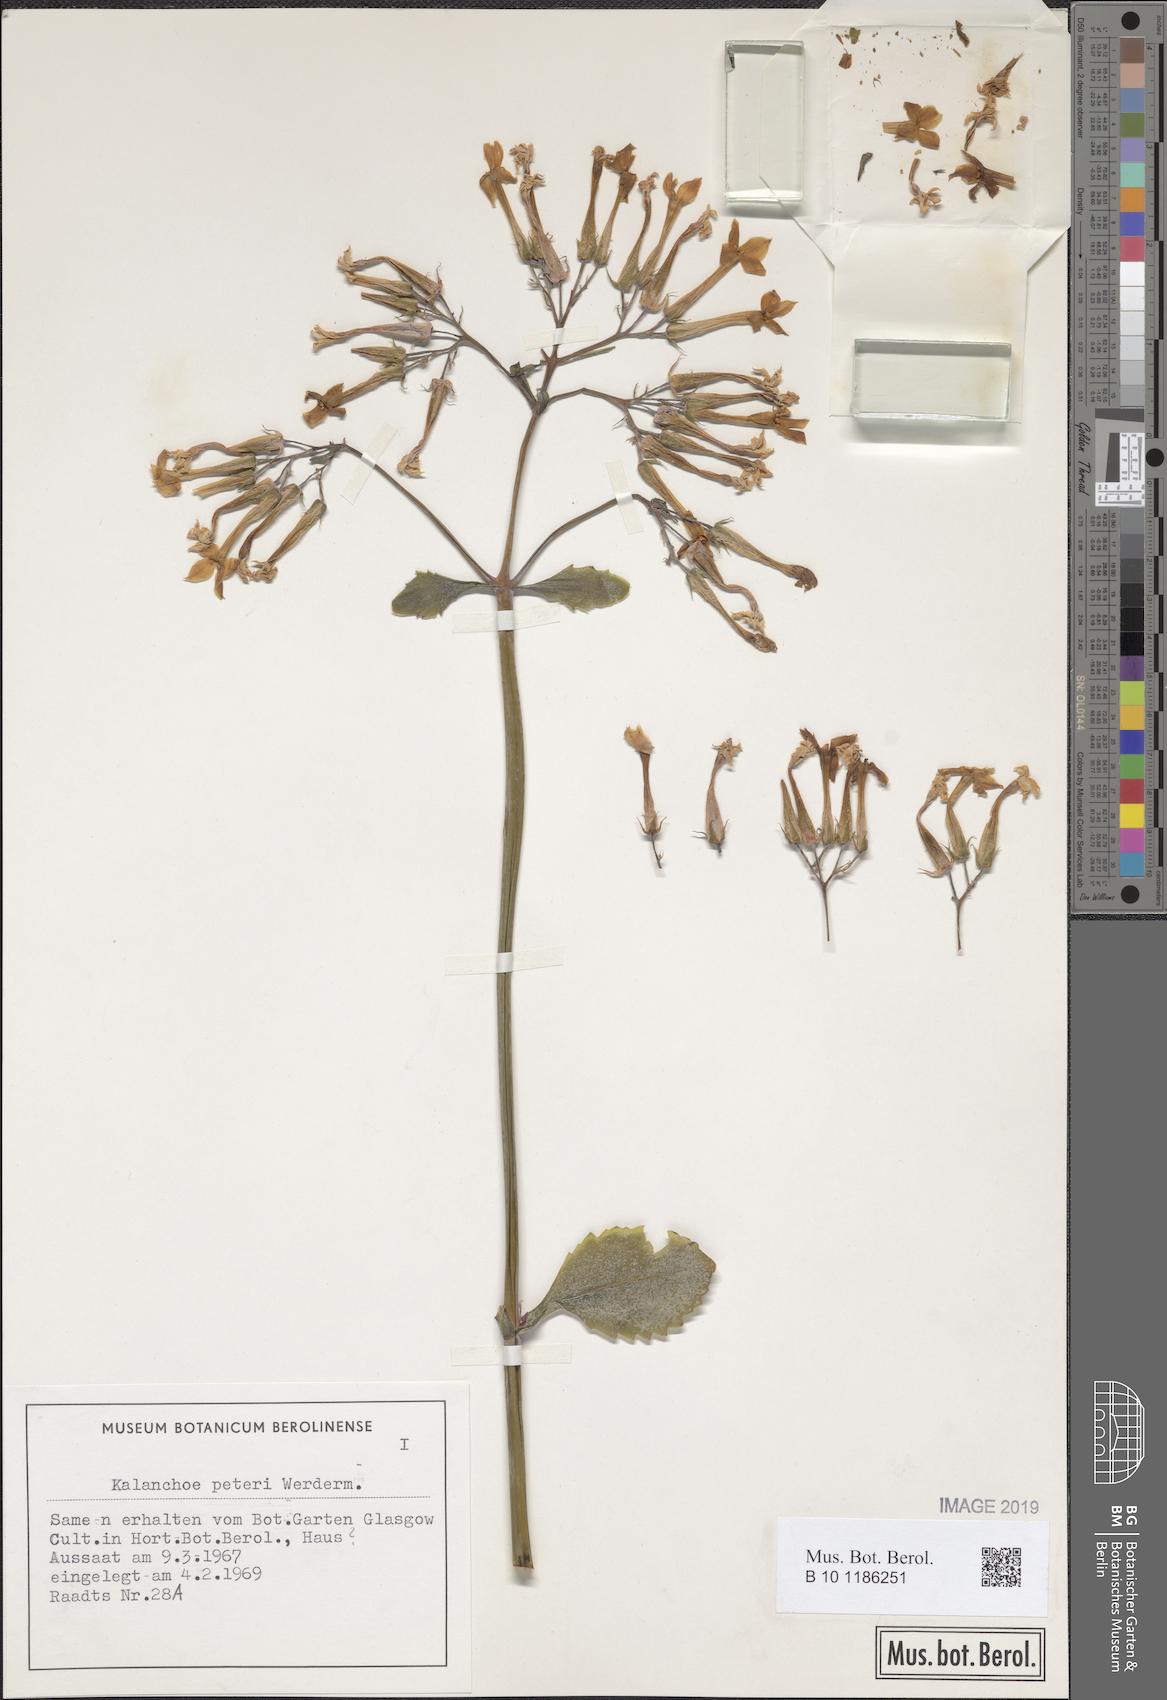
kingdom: Plantae
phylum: Tracheophyta
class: Magnoliopsida
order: Saxifragales
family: Crassulaceae
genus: Kalanchoe
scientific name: Kalanchoe peteri
